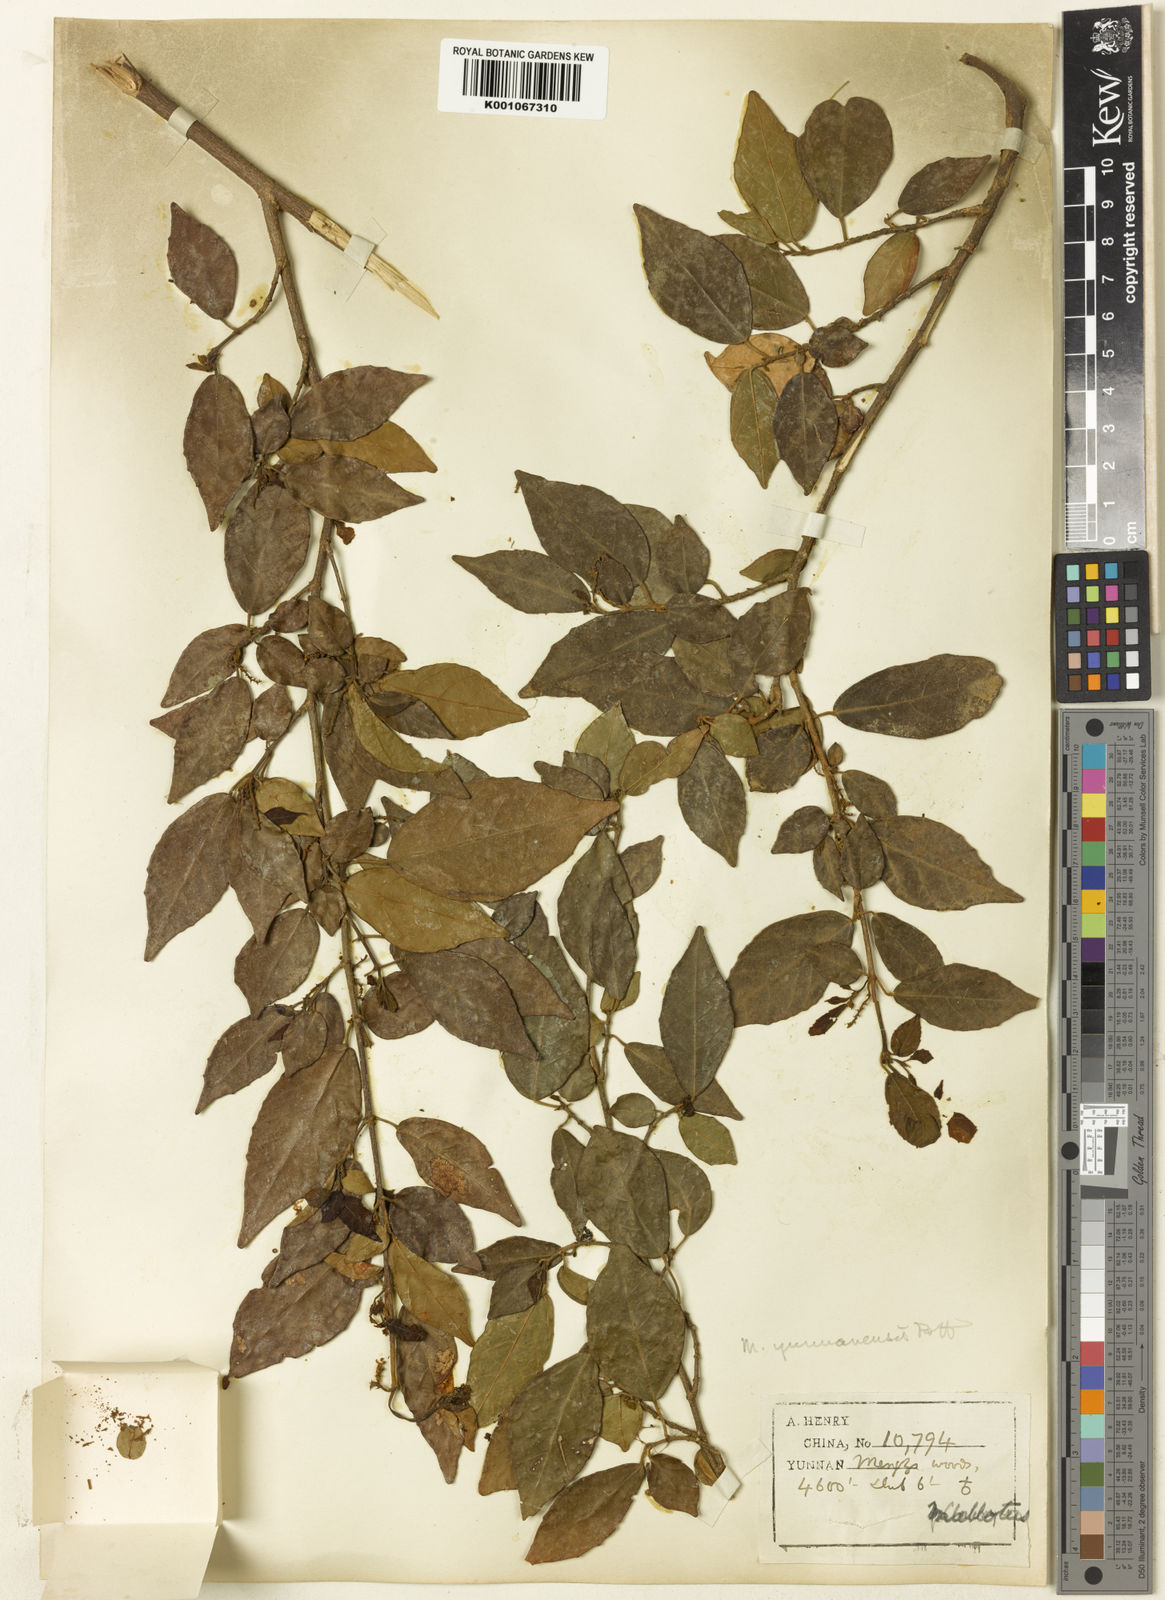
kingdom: Plantae
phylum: Tracheophyta
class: Magnoliopsida
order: Malpighiales
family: Euphorbiaceae
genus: Mallotus
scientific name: Mallotus yunnanensis
